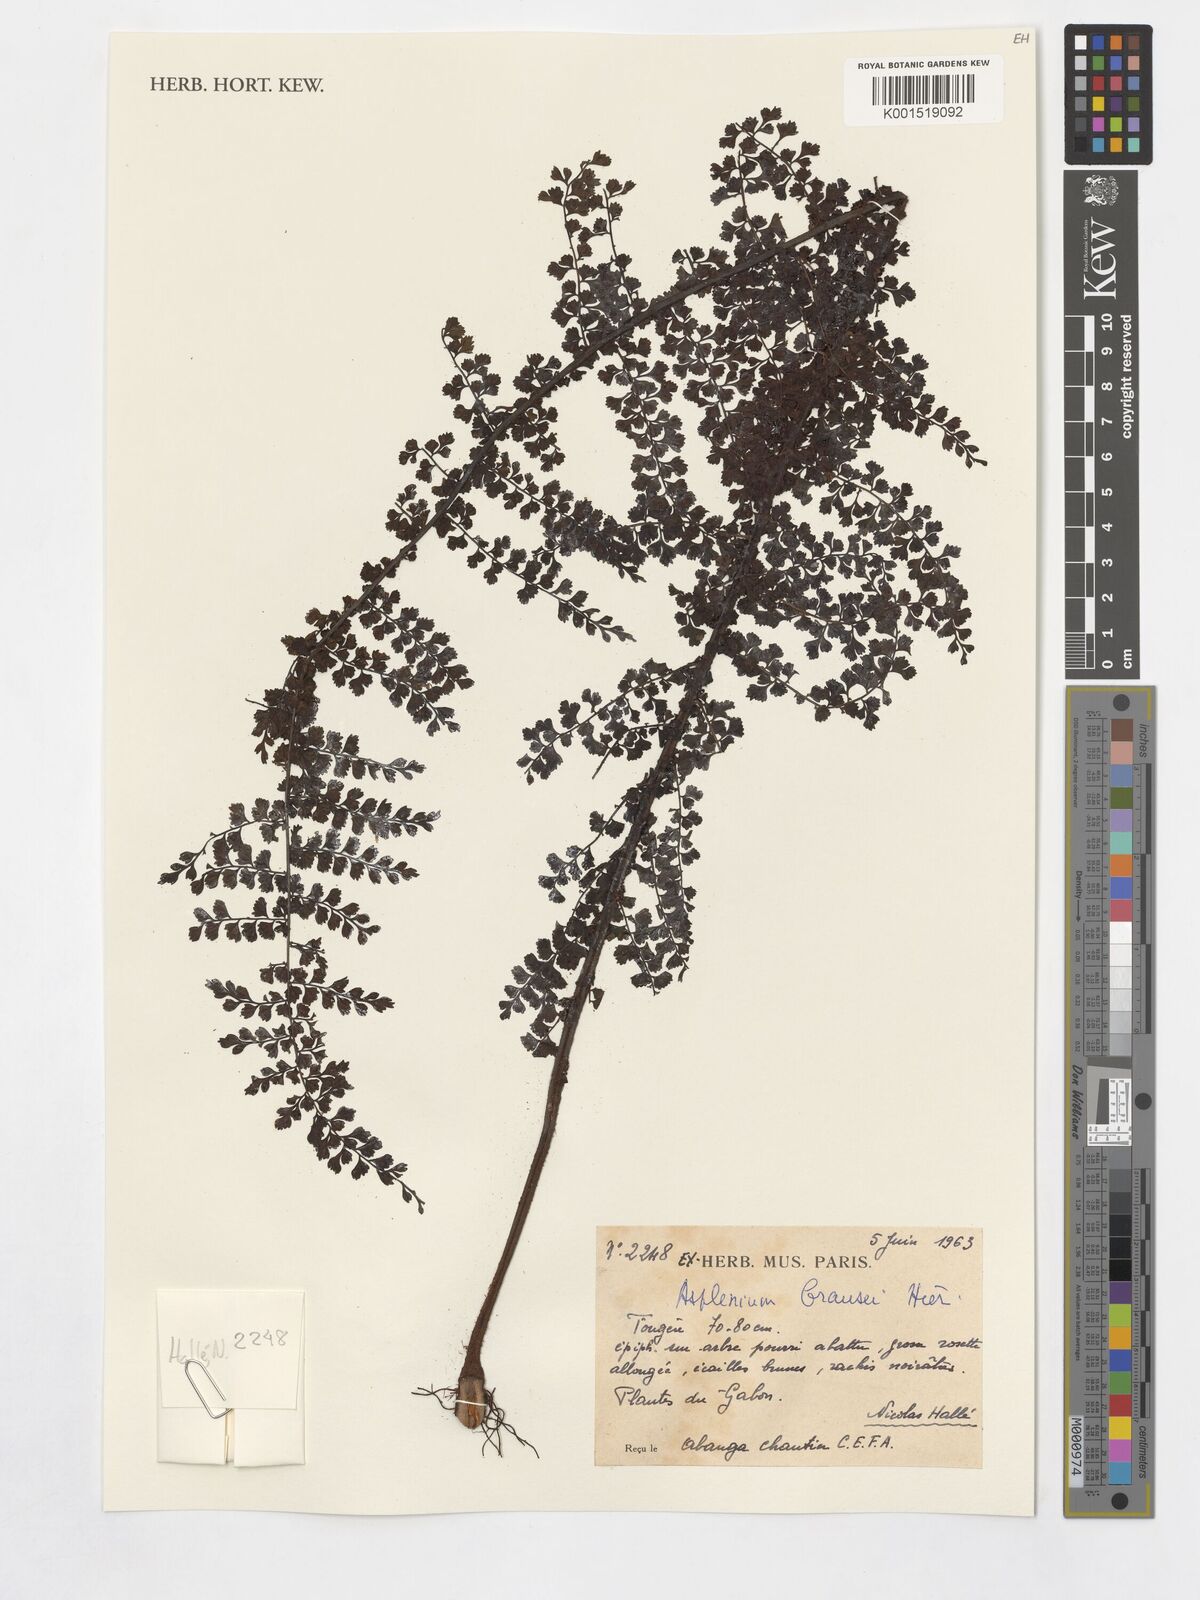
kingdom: Plantae
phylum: Tracheophyta
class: Polypodiopsida
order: Polypodiales
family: Aspleniaceae
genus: Asplenium
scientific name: Asplenium brausei
